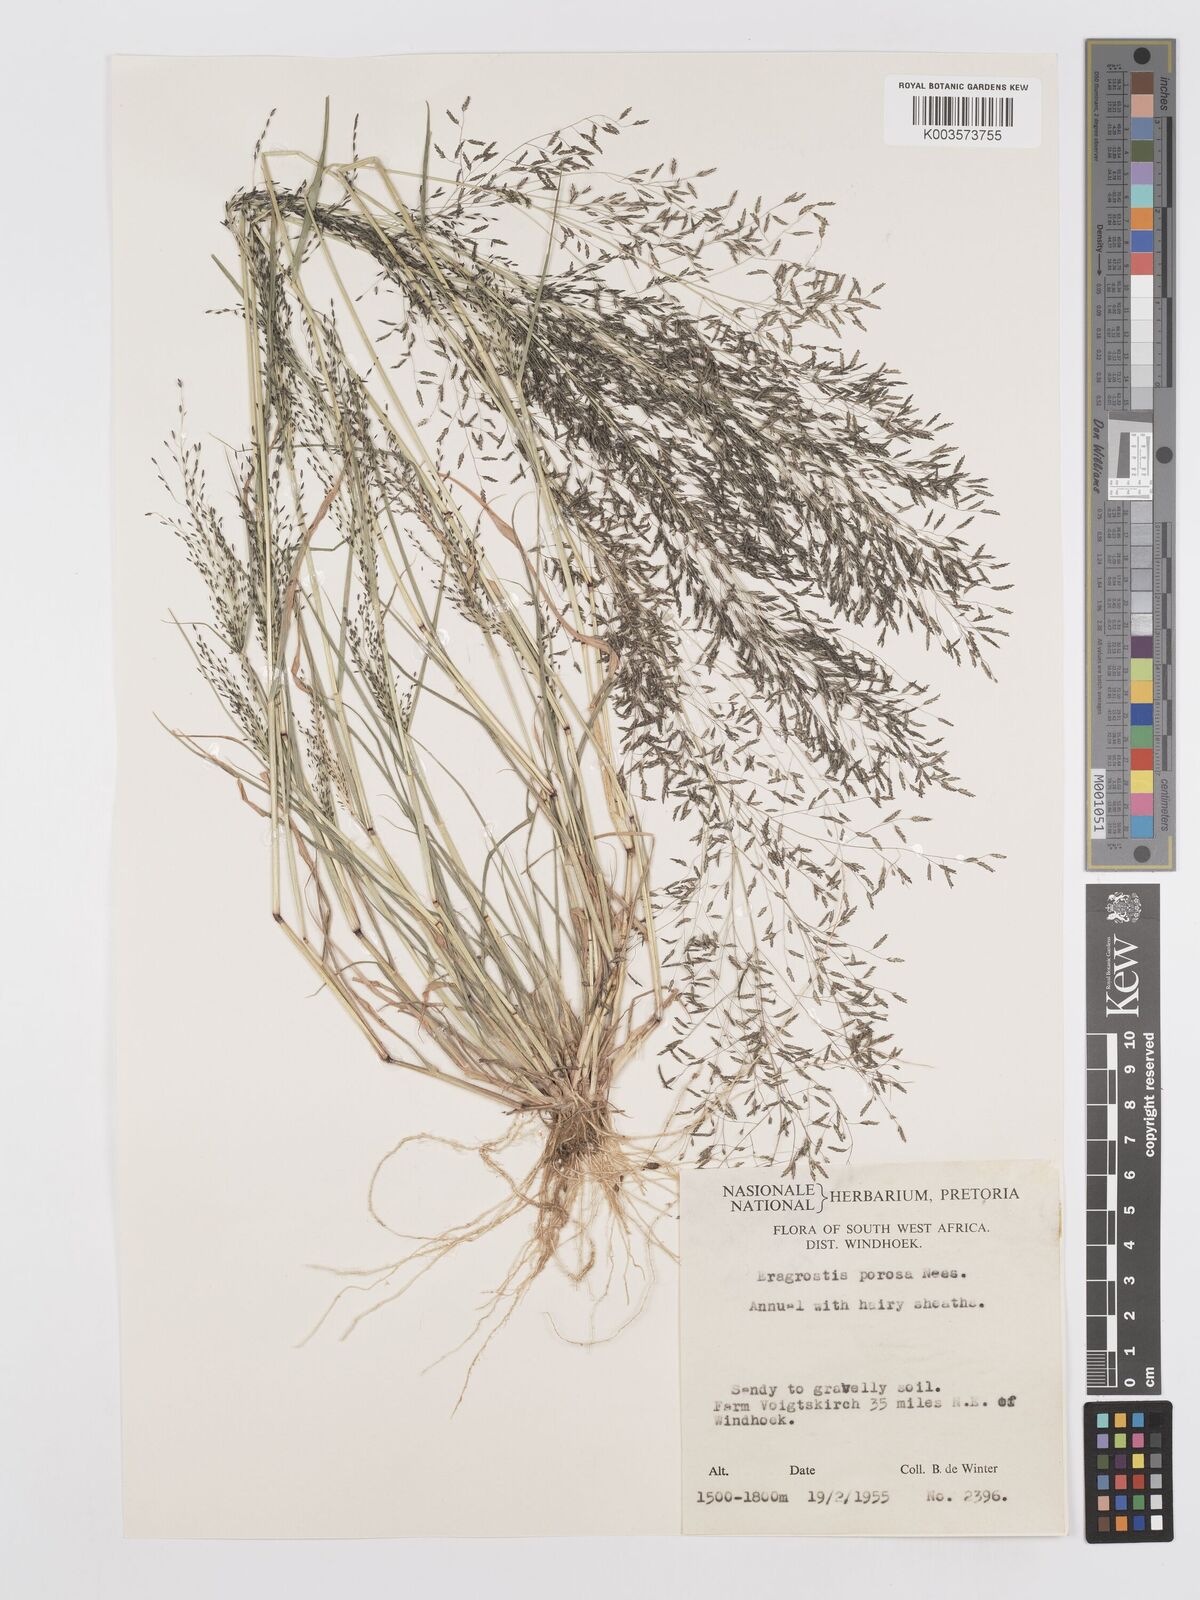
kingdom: Plantae
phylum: Tracheophyta
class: Liliopsida
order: Poales
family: Poaceae
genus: Eragrostis
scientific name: Eragrostis porosa
